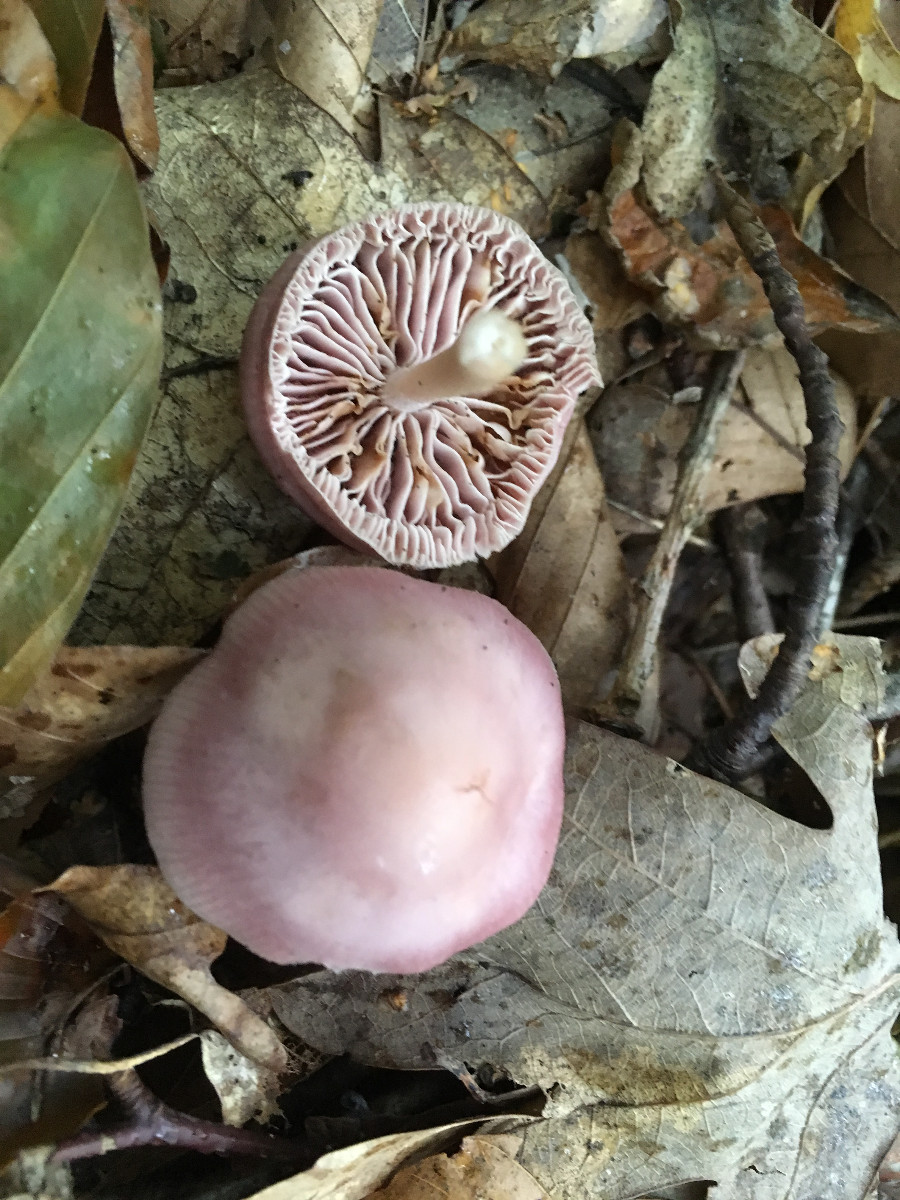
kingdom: Fungi
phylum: Basidiomycota
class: Agaricomycetes
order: Agaricales
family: Mycenaceae
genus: Mycena
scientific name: Mycena rosea
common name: rosa huesvamp
